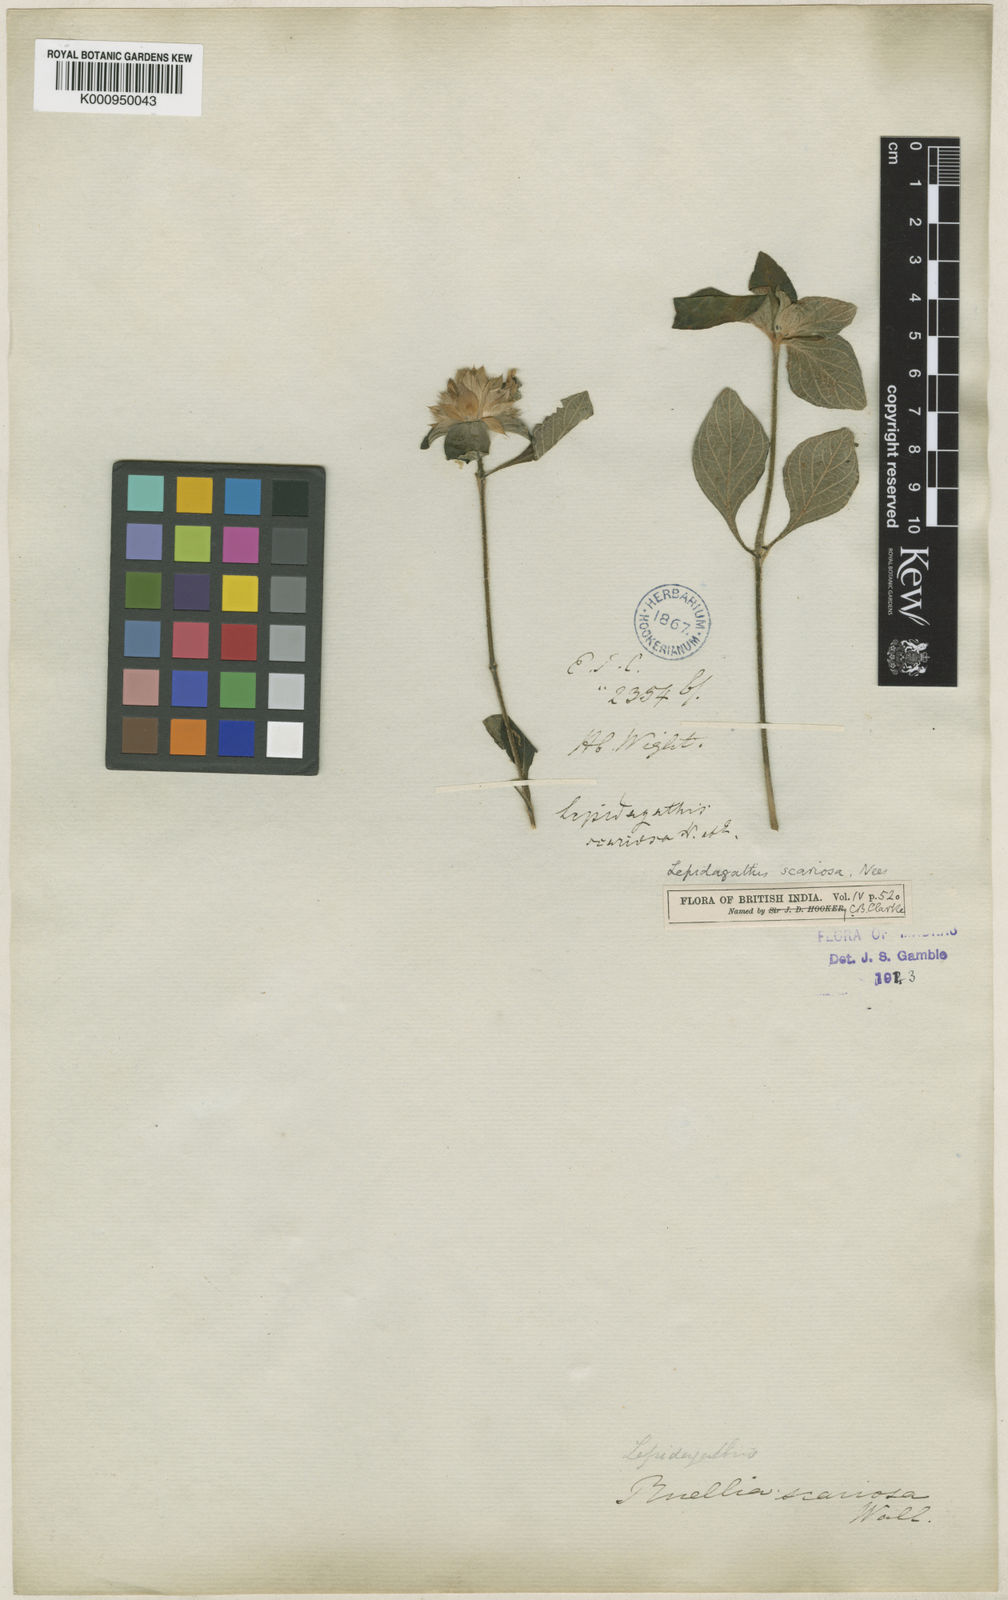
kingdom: Plantae
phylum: Tracheophyta
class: Magnoliopsida
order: Lamiales
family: Acanthaceae
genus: Lepidagathis
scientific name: Lepidagathis scariosa
